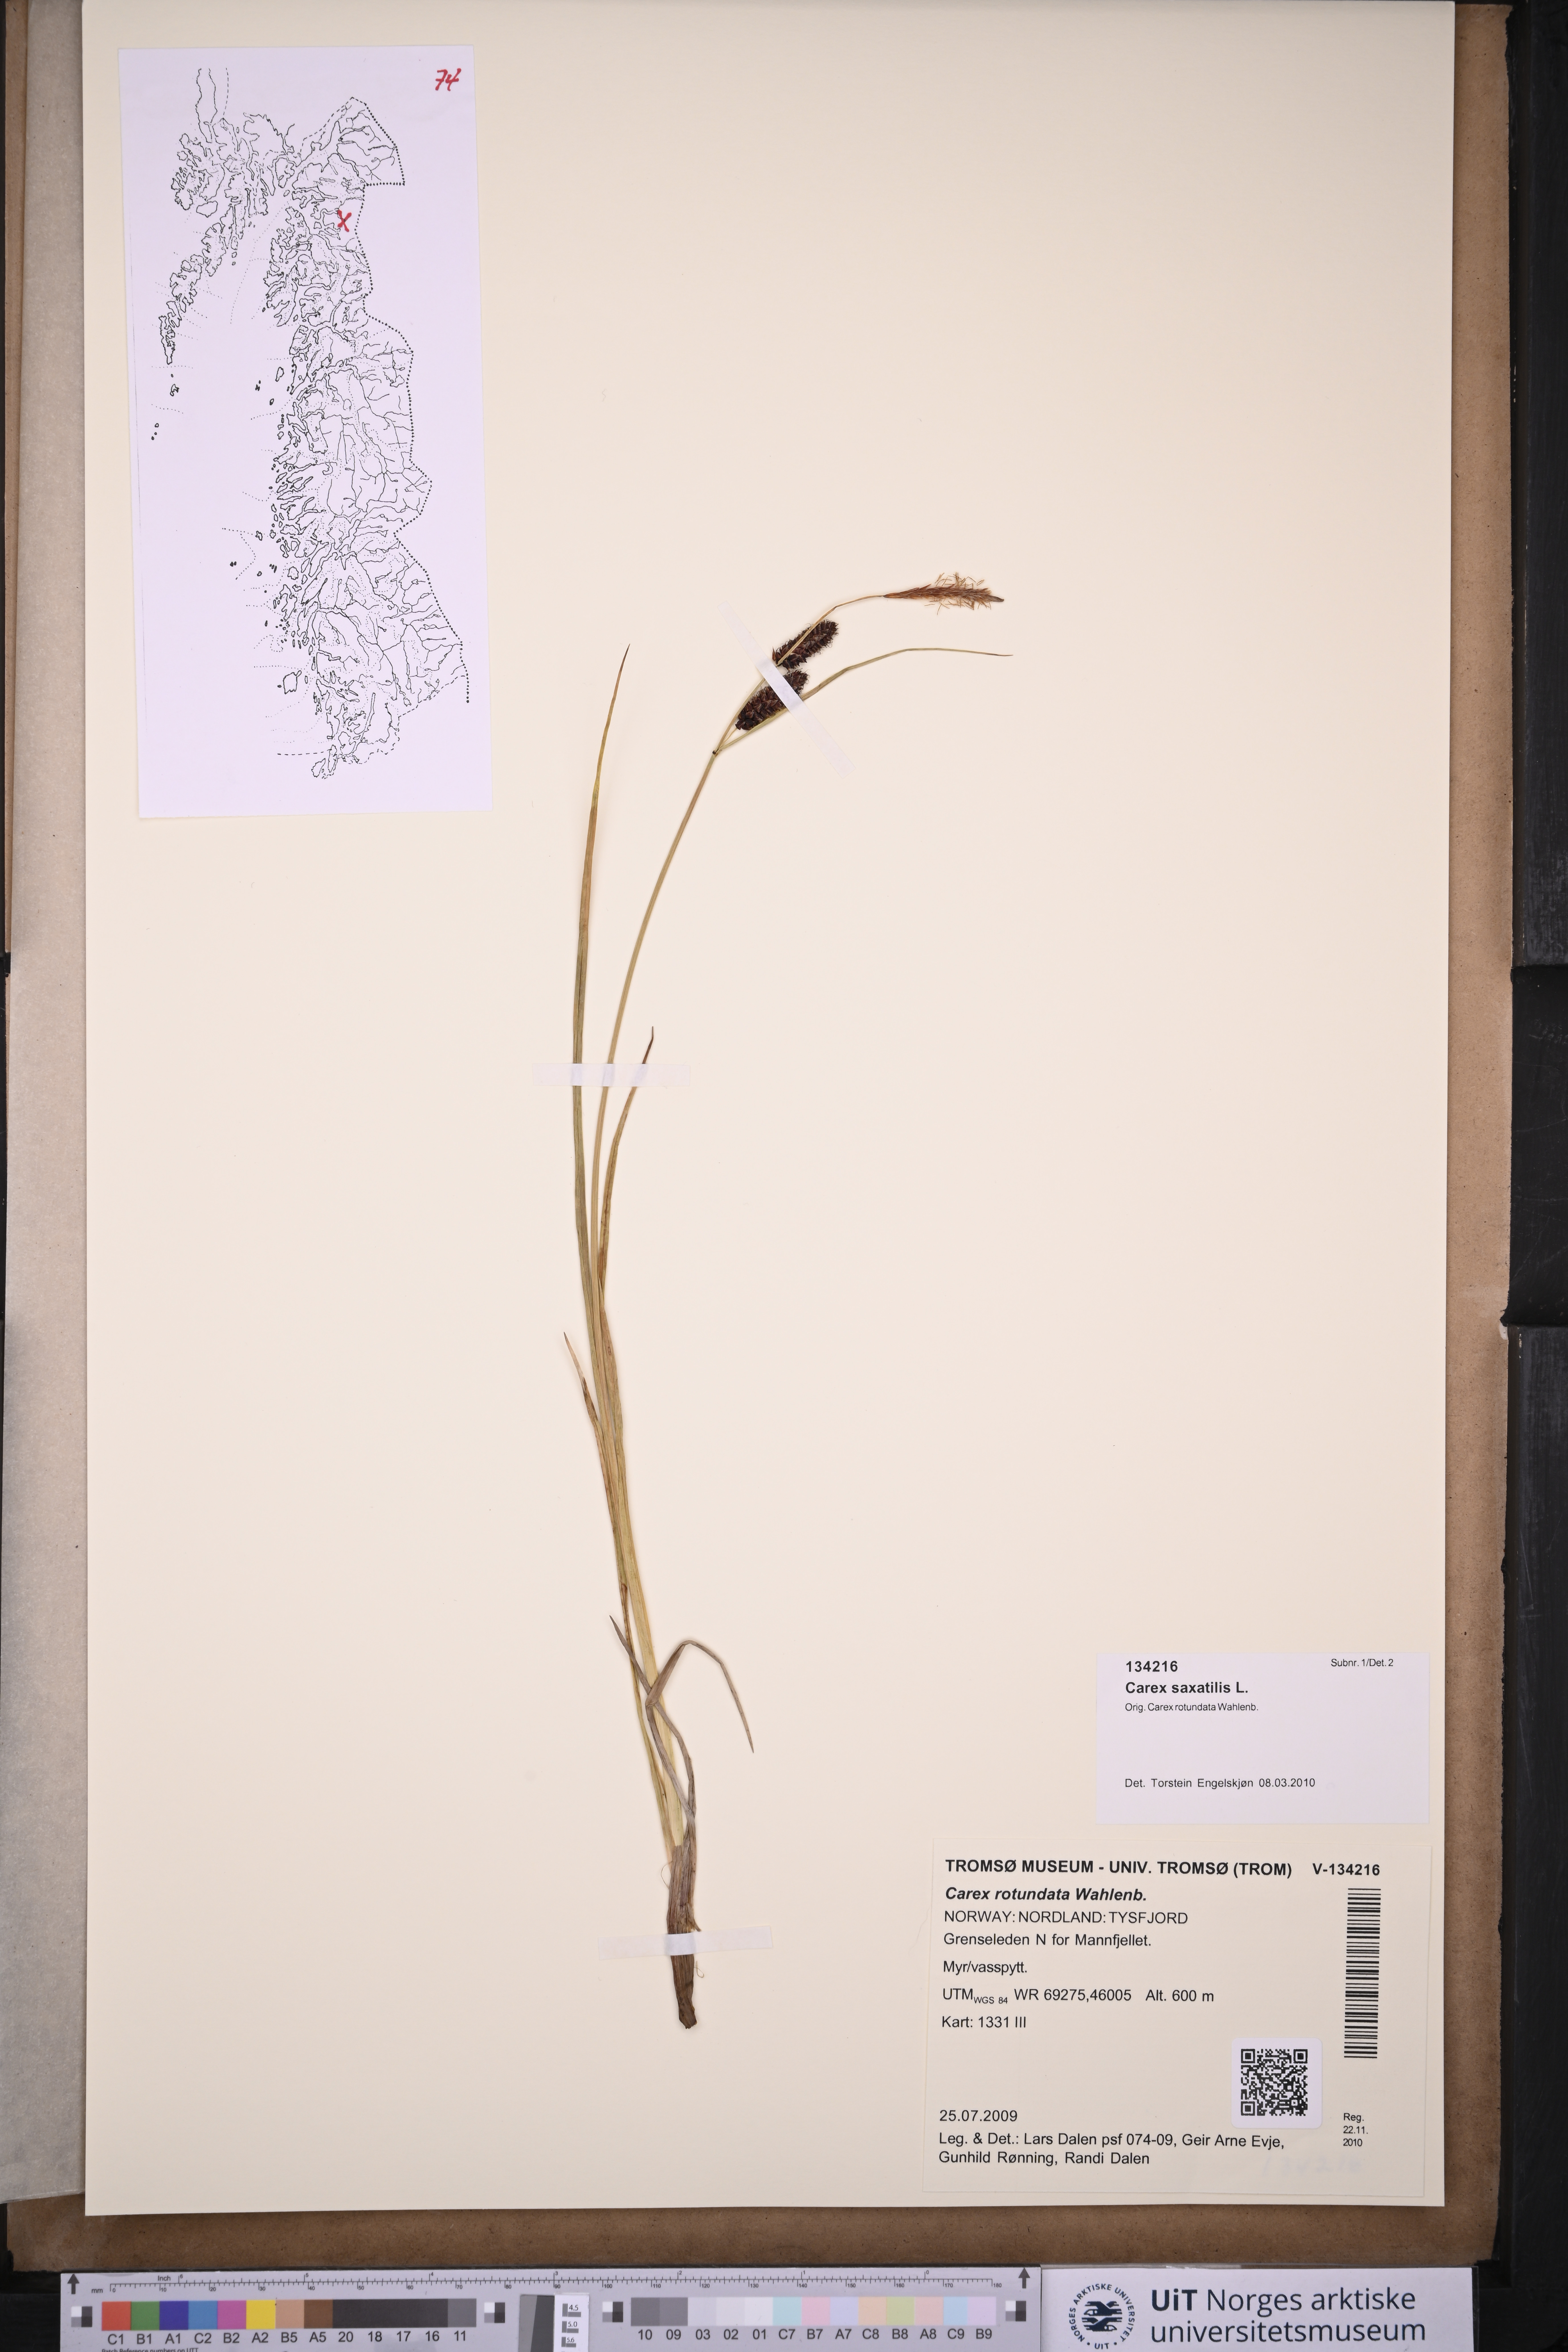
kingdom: Plantae
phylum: Tracheophyta
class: Liliopsida
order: Poales
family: Cyperaceae
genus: Carex
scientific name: Carex saxatilis
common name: Russet sedge
